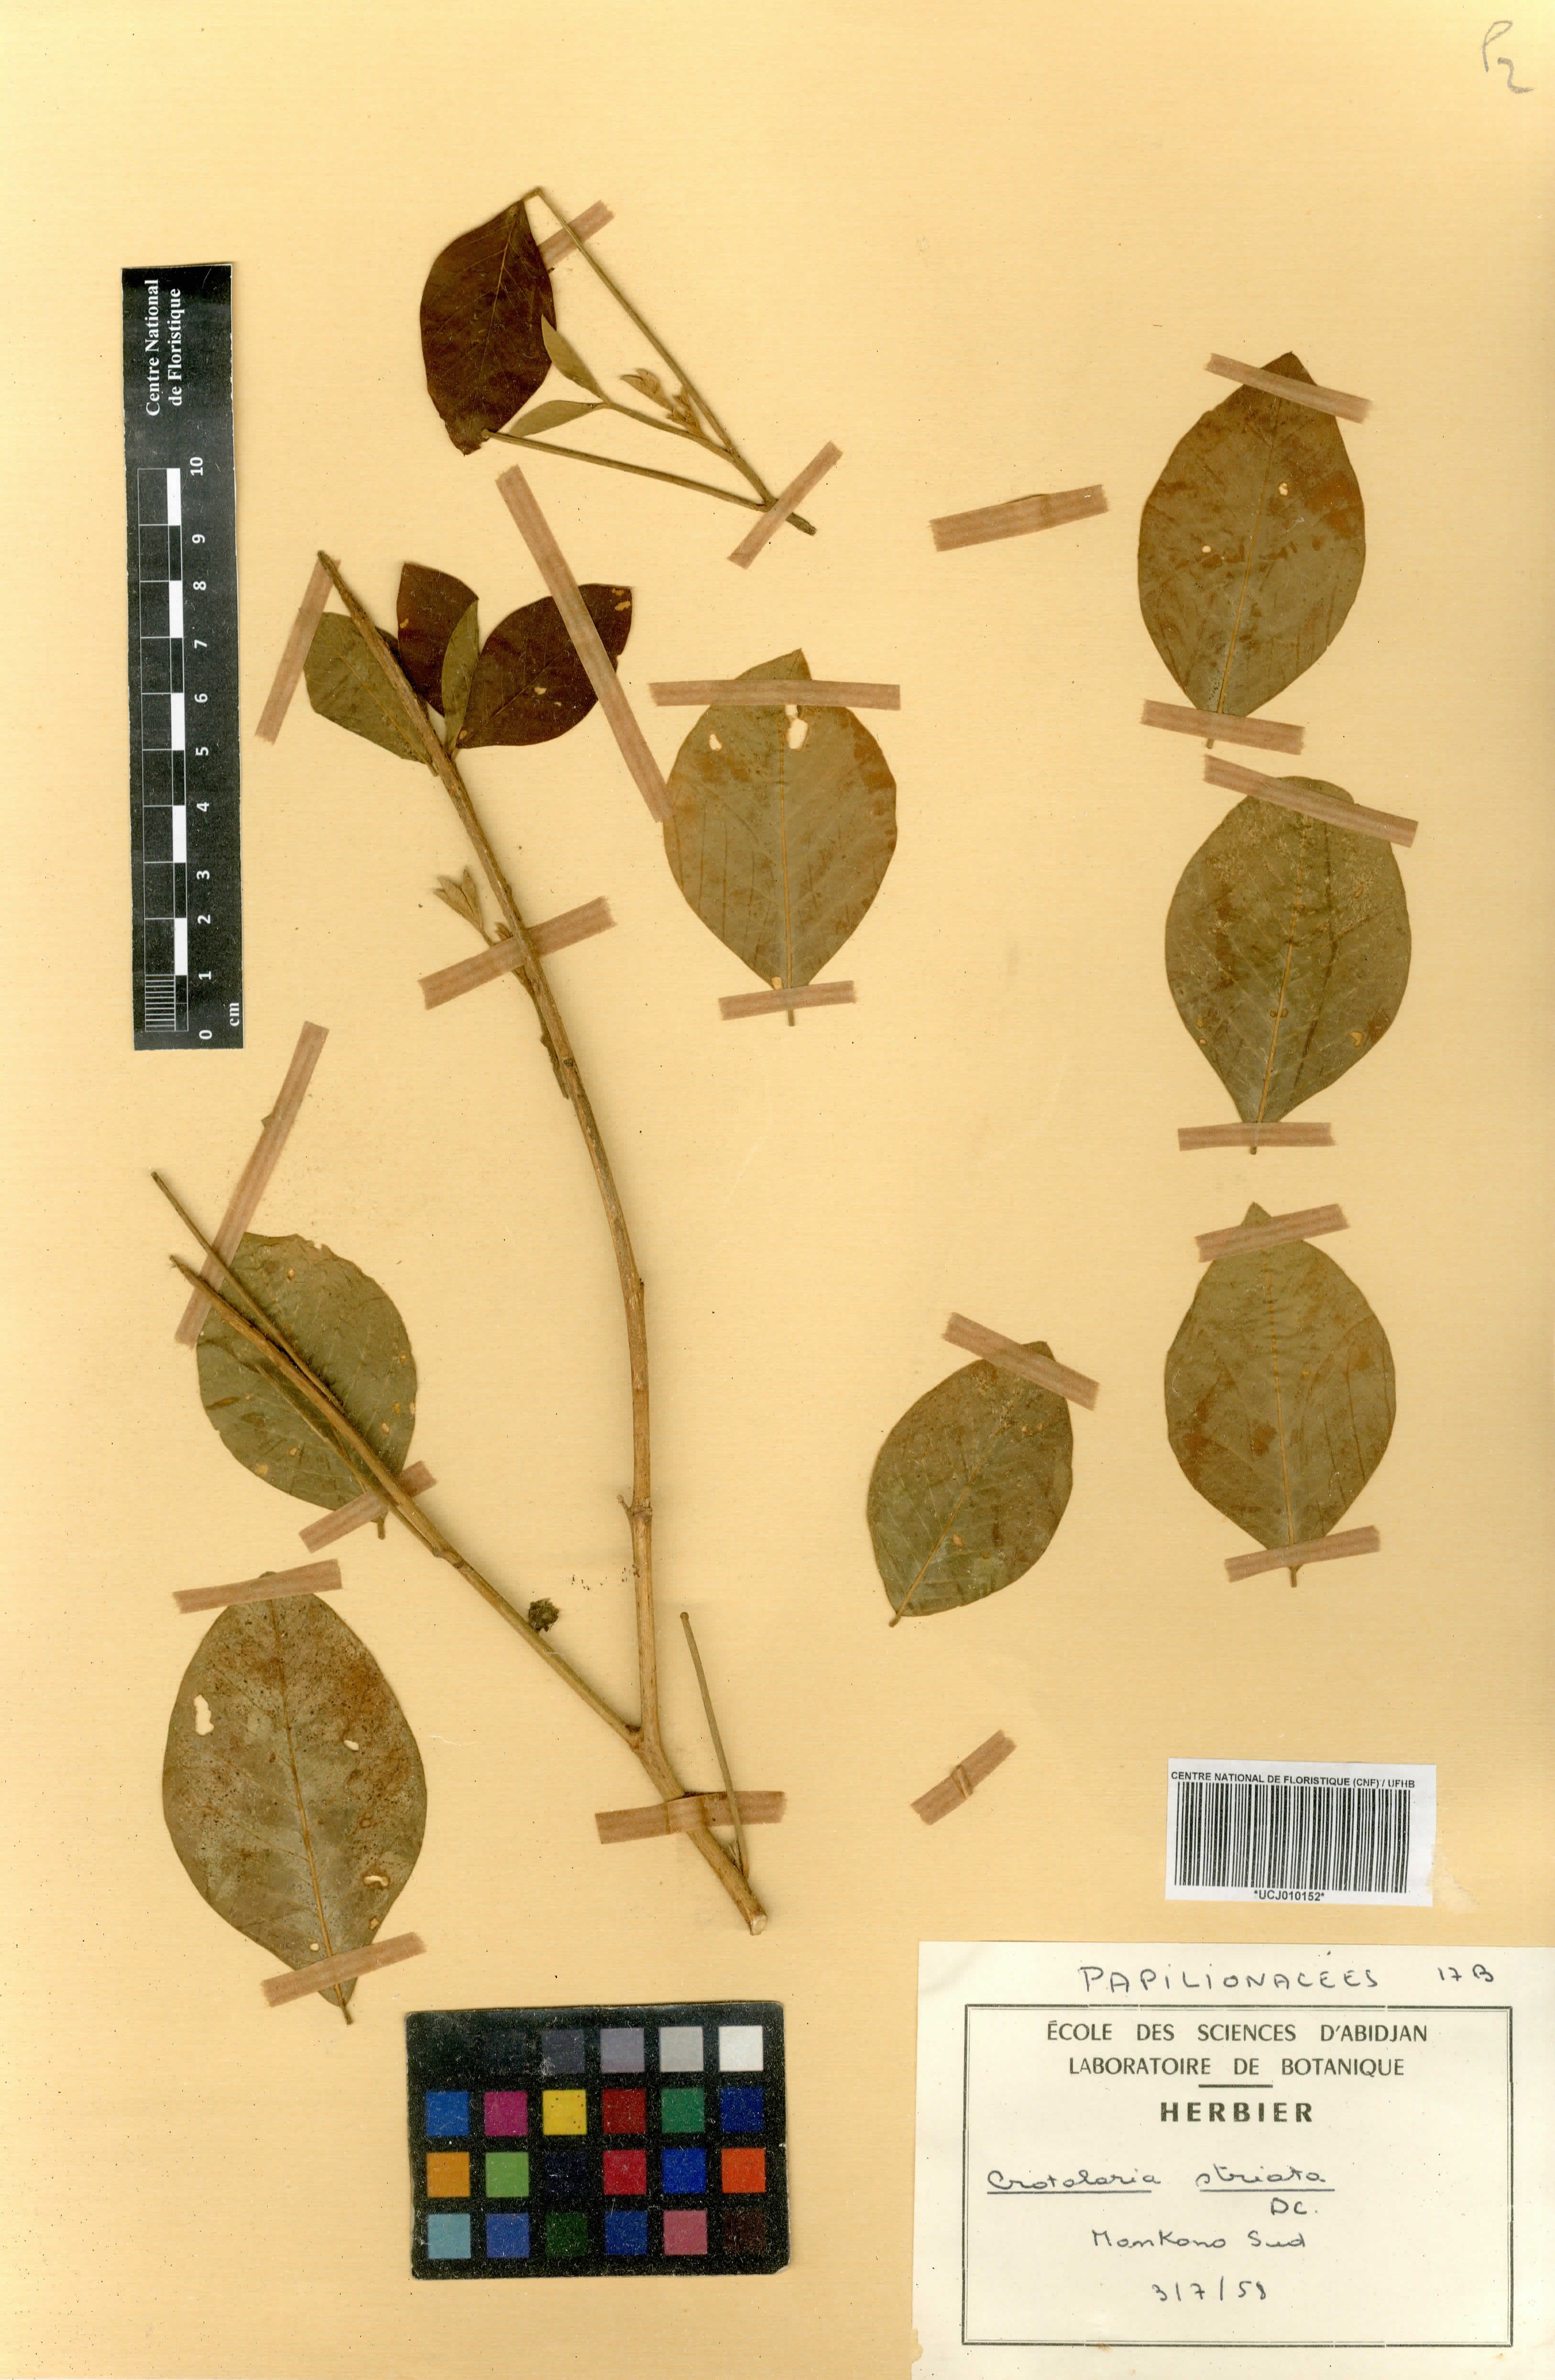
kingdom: Plantae
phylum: Tracheophyta
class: Magnoliopsida
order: Fabales
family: Fabaceae
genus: Crotalaria
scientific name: Crotalaria pallida
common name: Smooth rattlebox
